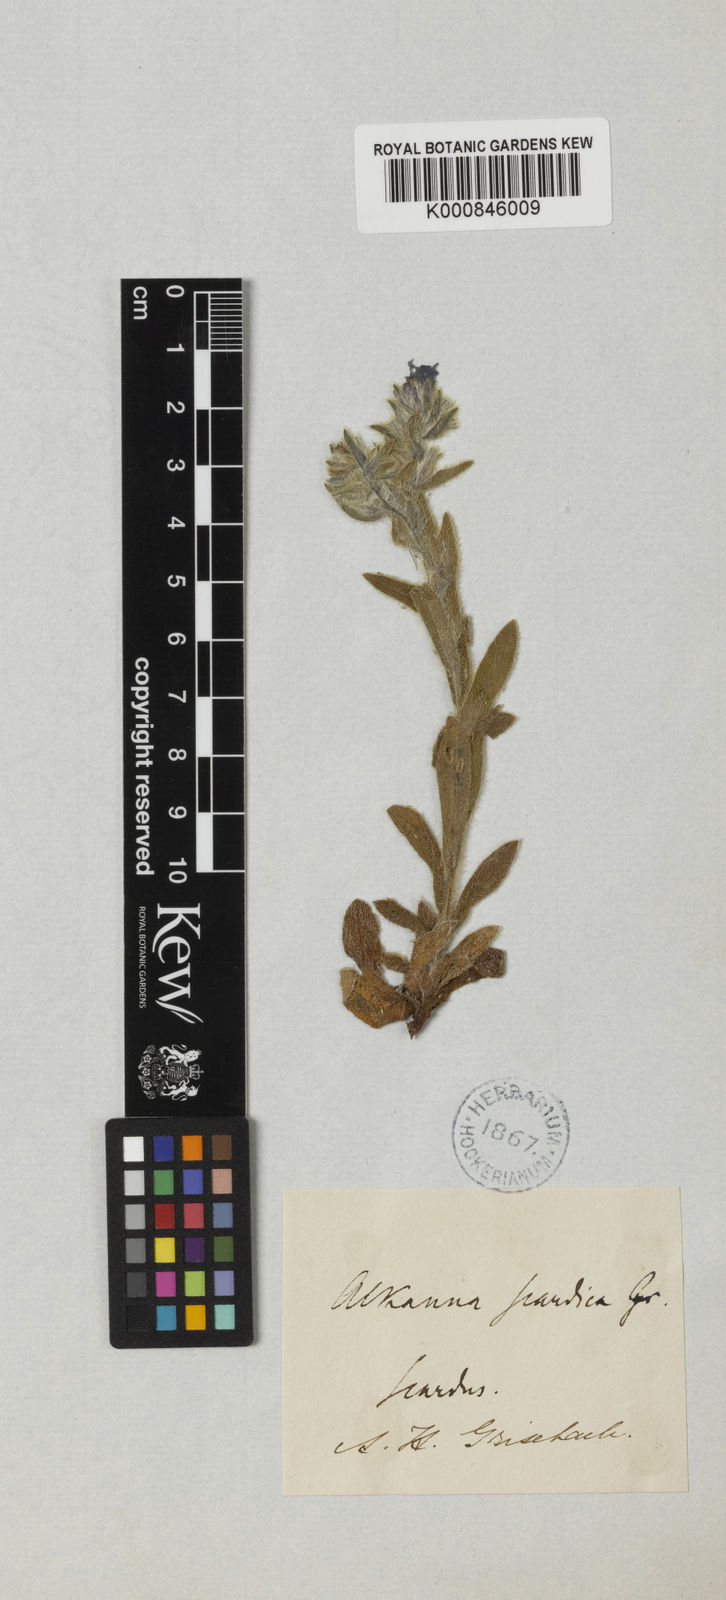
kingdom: Plantae
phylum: Tracheophyta
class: Magnoliopsida
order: Boraginales
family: Boraginaceae
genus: Alkanna
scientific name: Alkanna scardica
